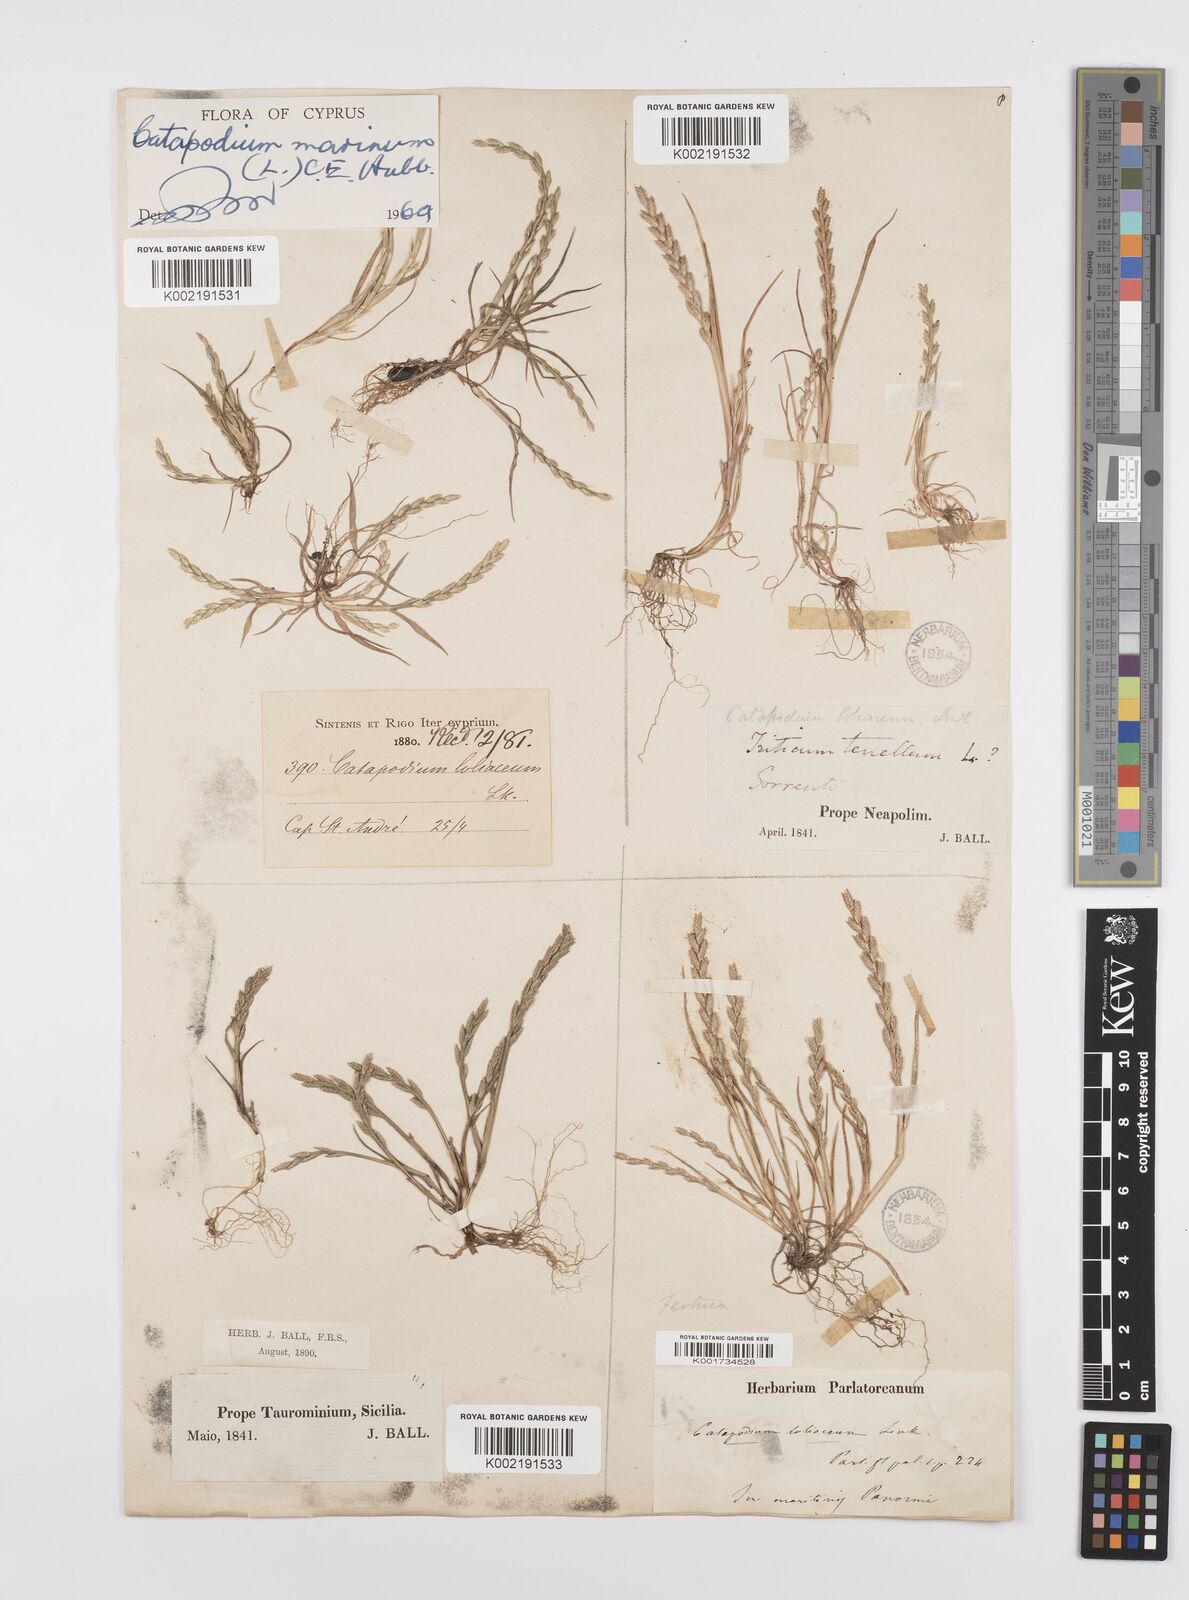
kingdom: Plantae
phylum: Tracheophyta
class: Liliopsida
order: Poales
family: Poaceae
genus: Catapodium
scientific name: Catapodium marinum
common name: Sea fern-grass
